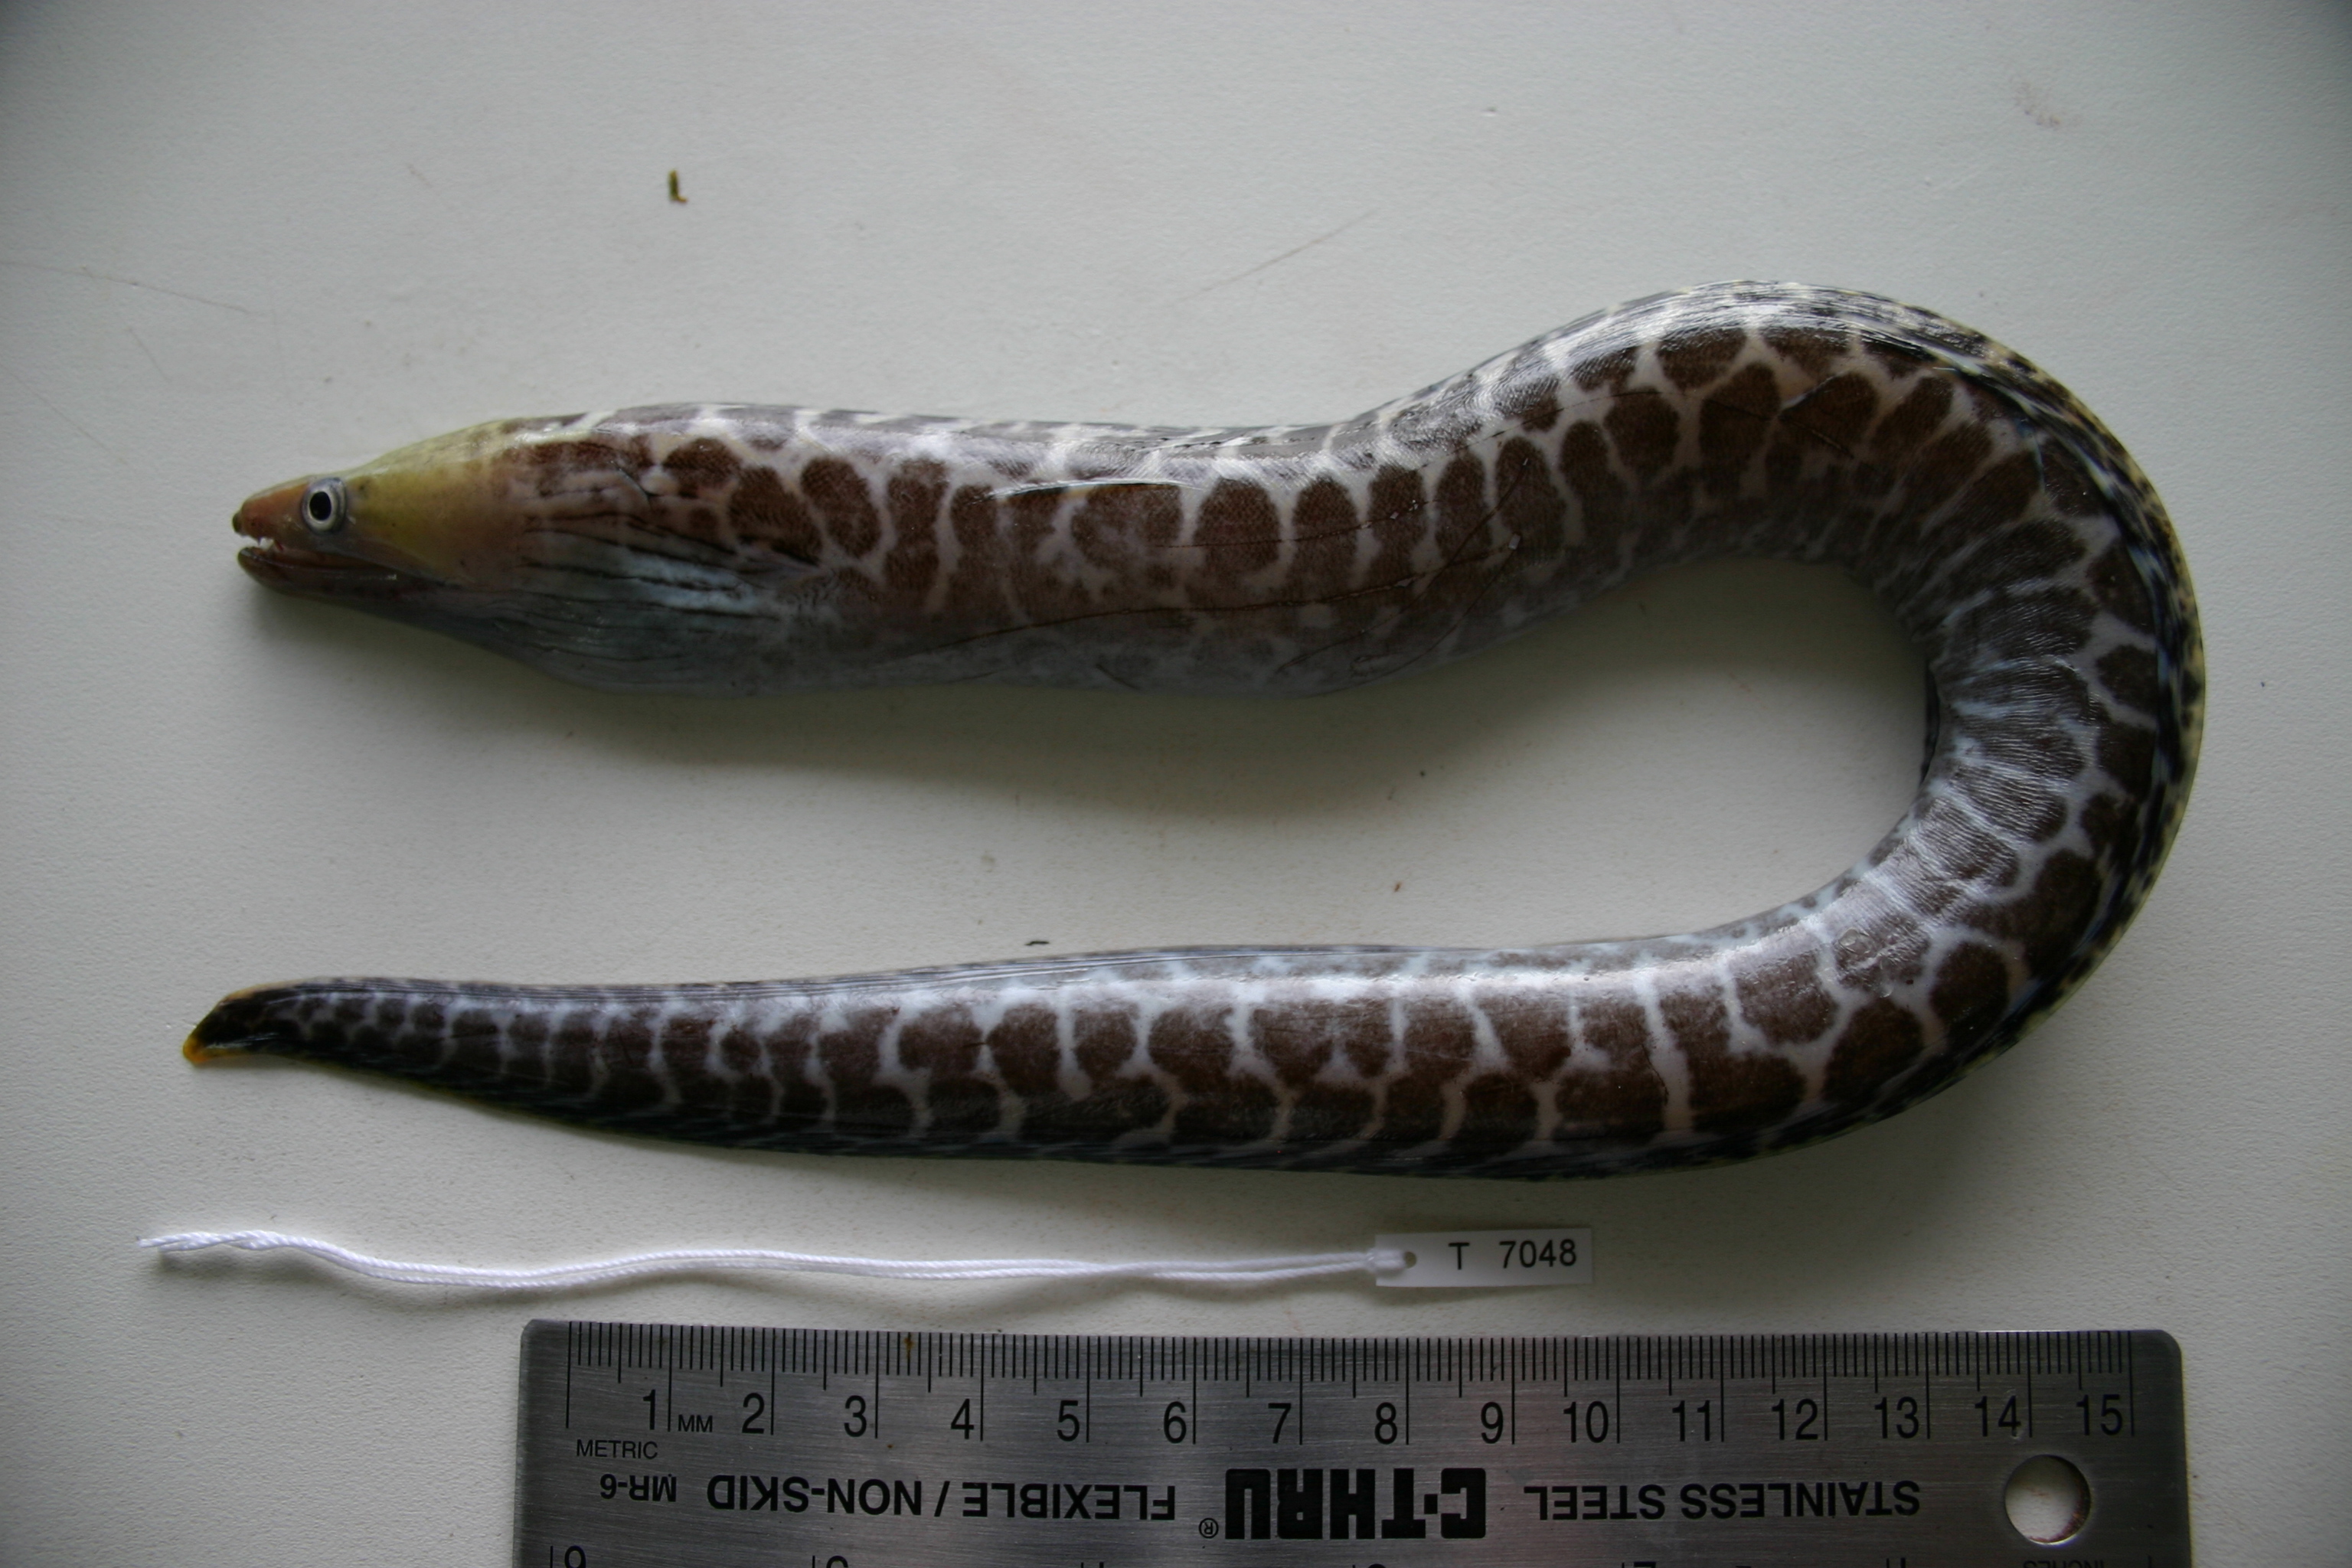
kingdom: Animalia
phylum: Chordata
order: Anguilliformes
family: Muraenidae
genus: Gymnothorax
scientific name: Gymnothorax polyuranodon
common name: Freshwater moray
